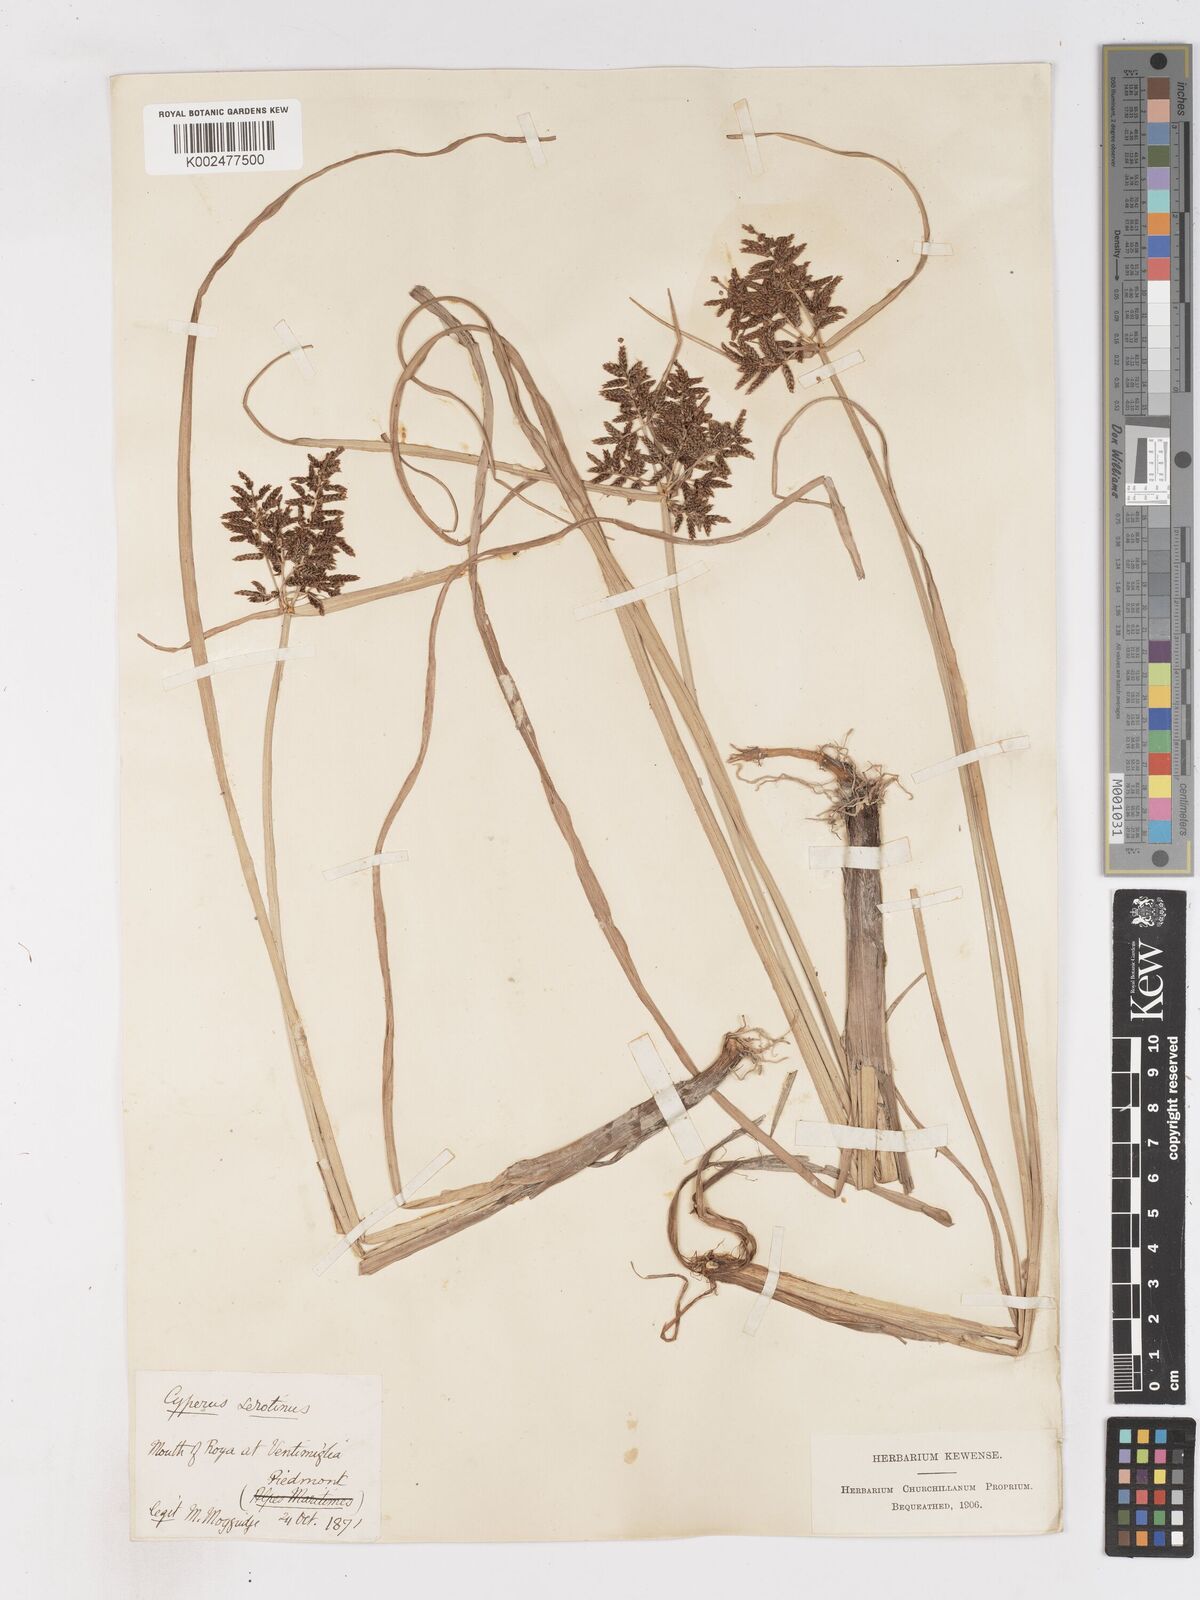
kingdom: Plantae
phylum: Tracheophyta
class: Liliopsida
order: Poales
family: Cyperaceae
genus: Cyperus
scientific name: Cyperus serotinus
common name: Tidalmarsh flatsedge
